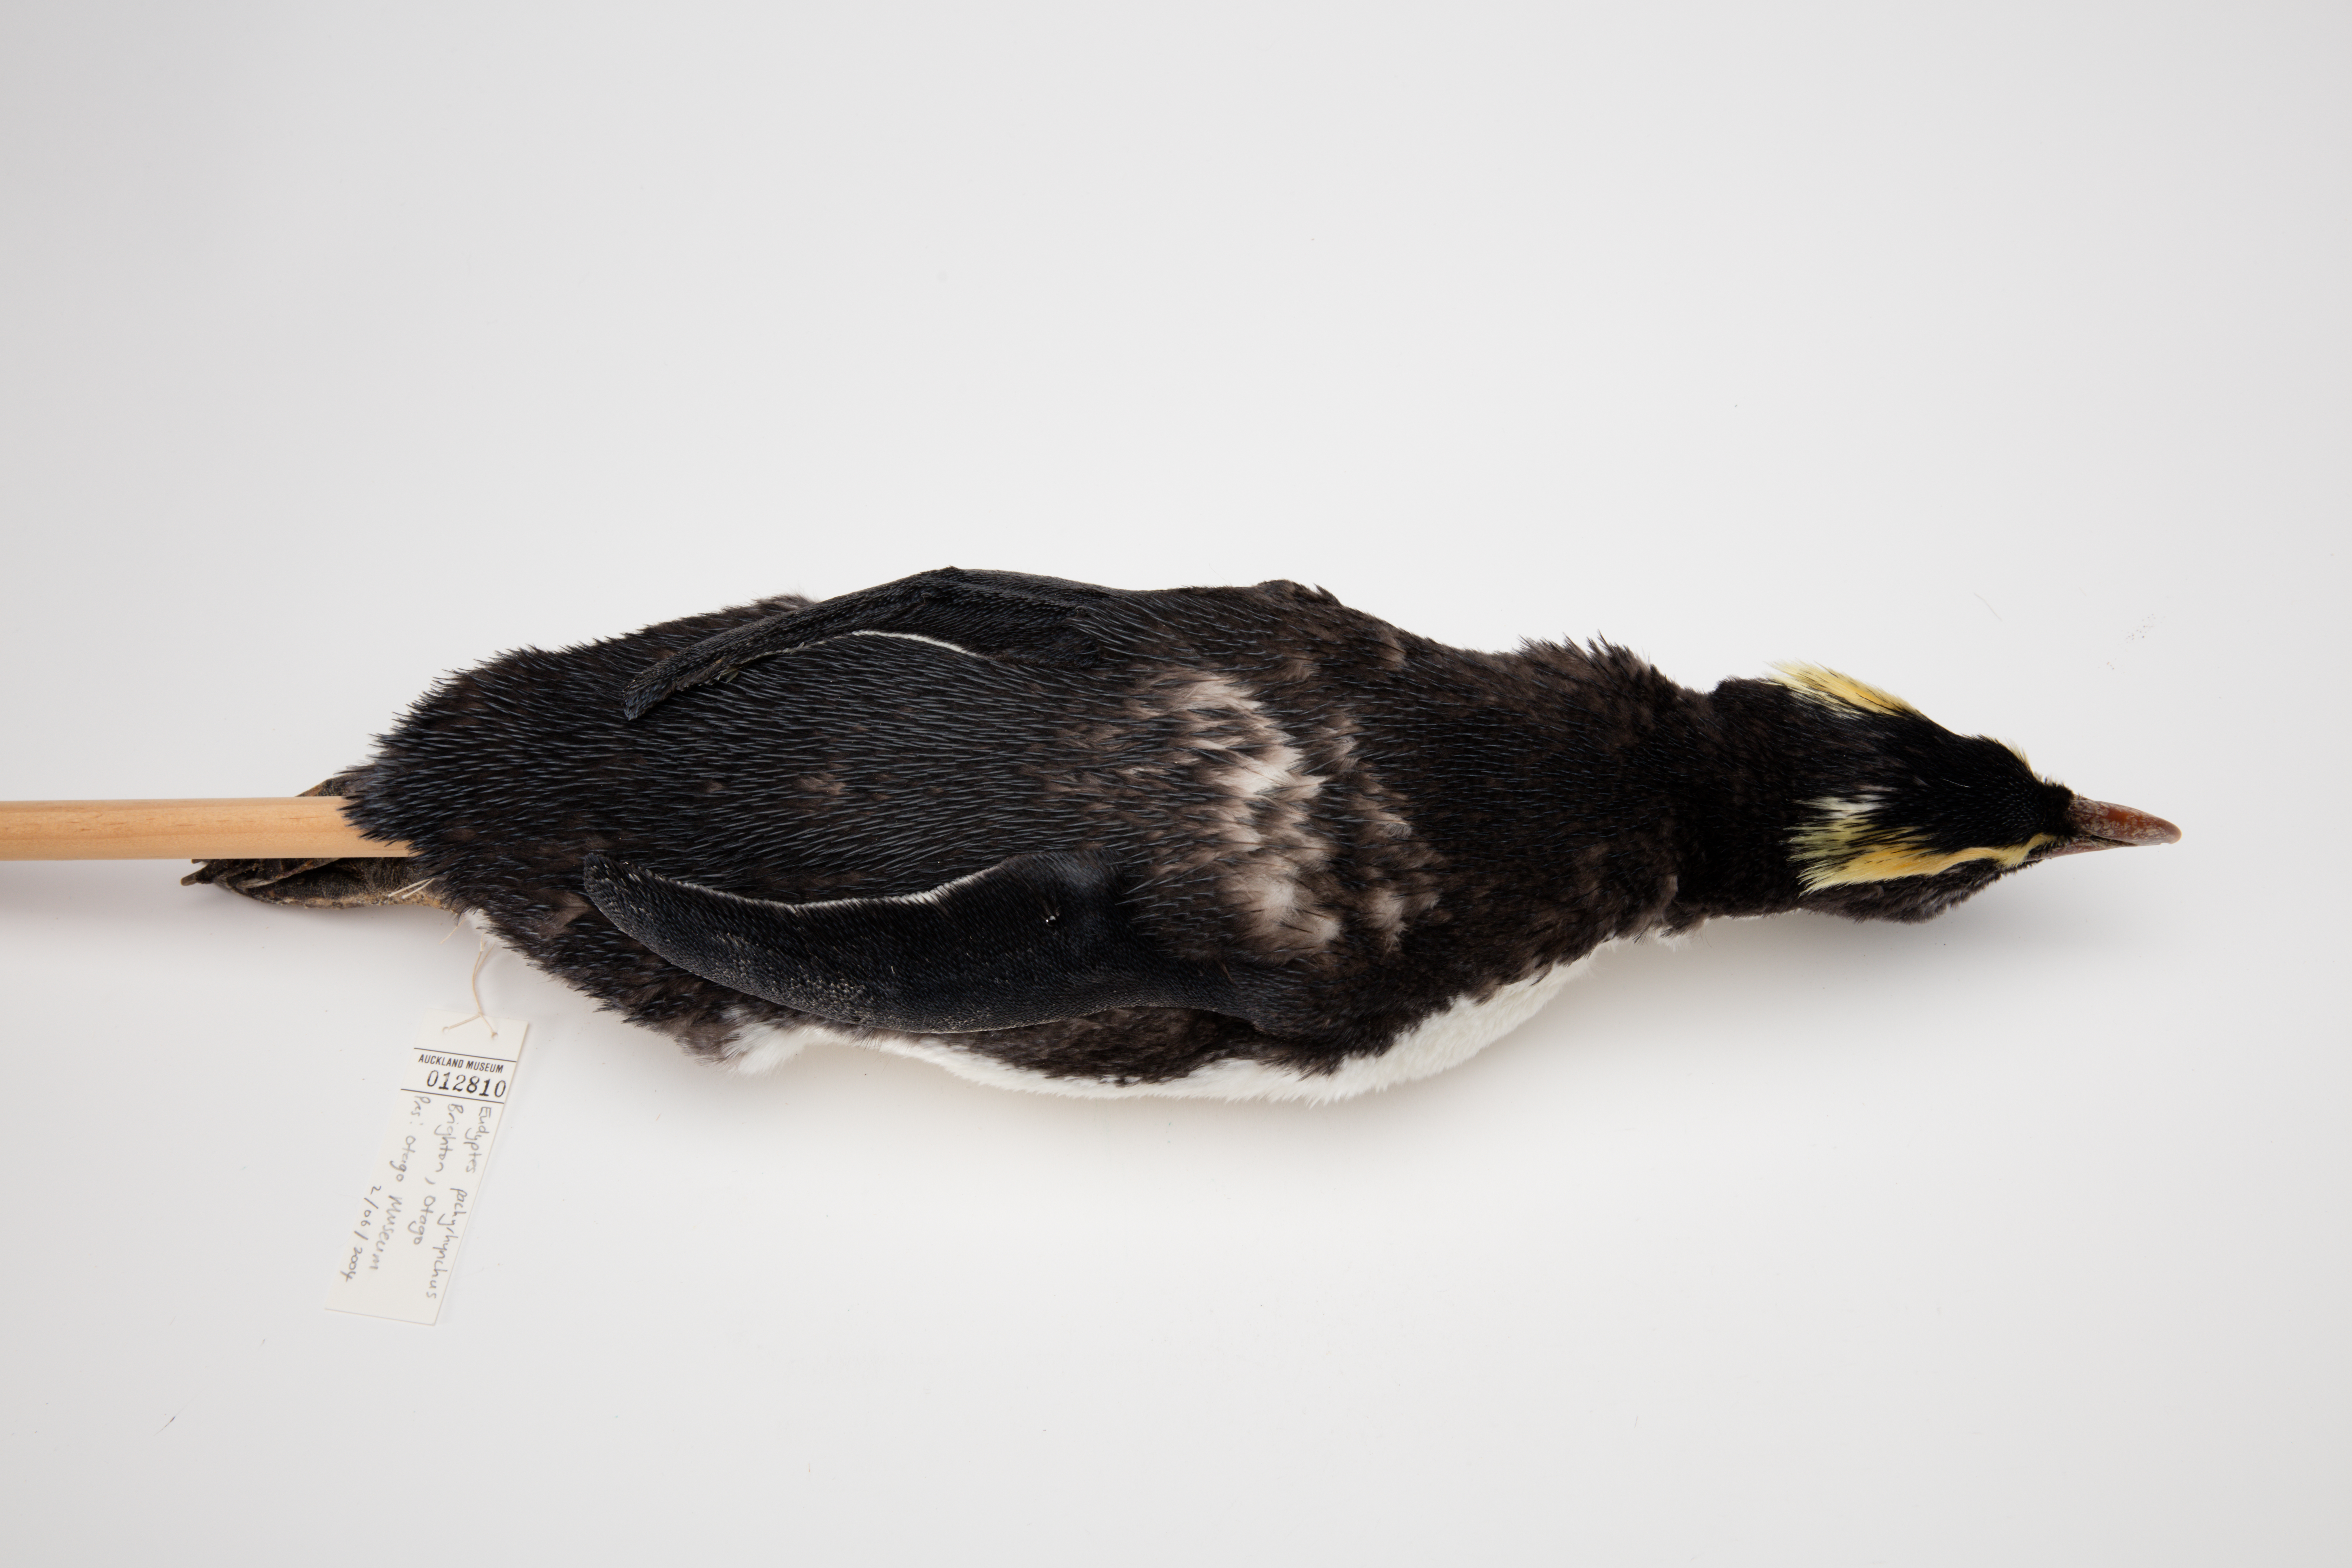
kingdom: Animalia
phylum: Chordata
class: Aves
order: Sphenisciformes
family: Spheniscidae
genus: Eudyptes
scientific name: Eudyptes pachyrhynchus
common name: Fiordland penguin
